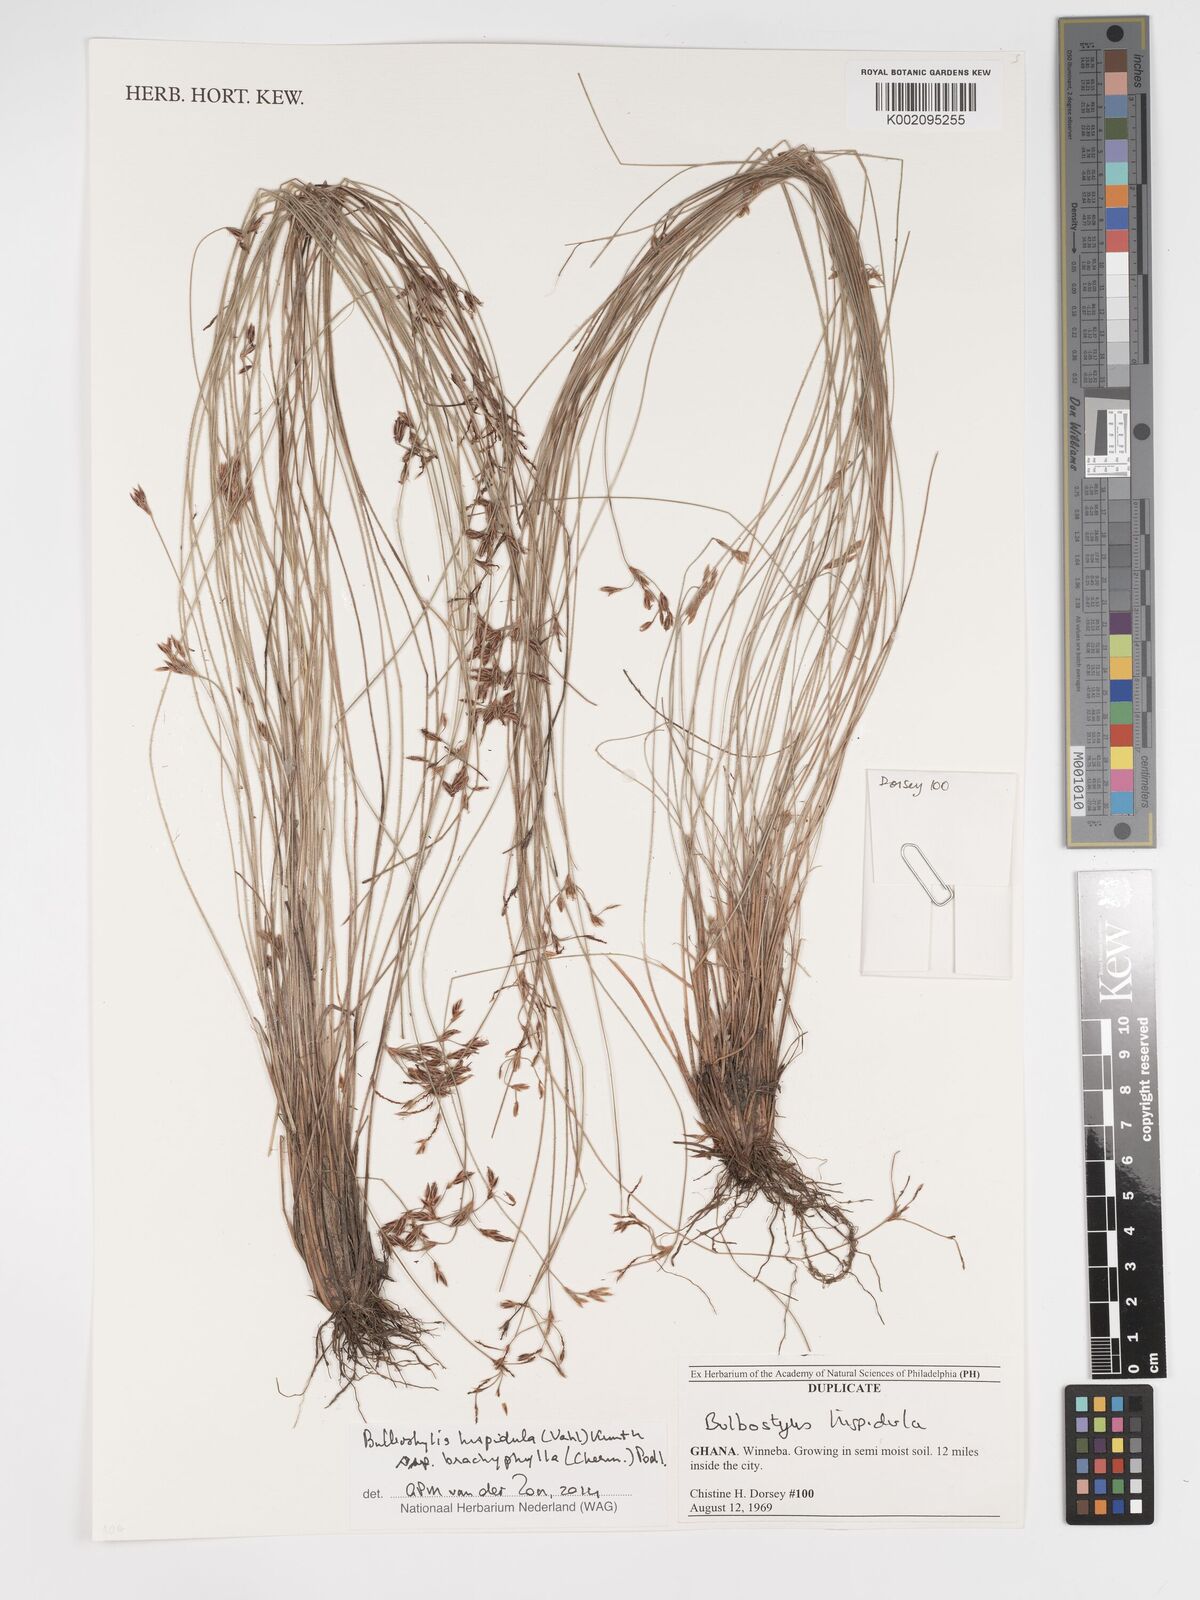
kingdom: Plantae
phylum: Tracheophyta
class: Liliopsida
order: Poales
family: Cyperaceae
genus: Bulbostylis
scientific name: Bulbostylis hispidula
